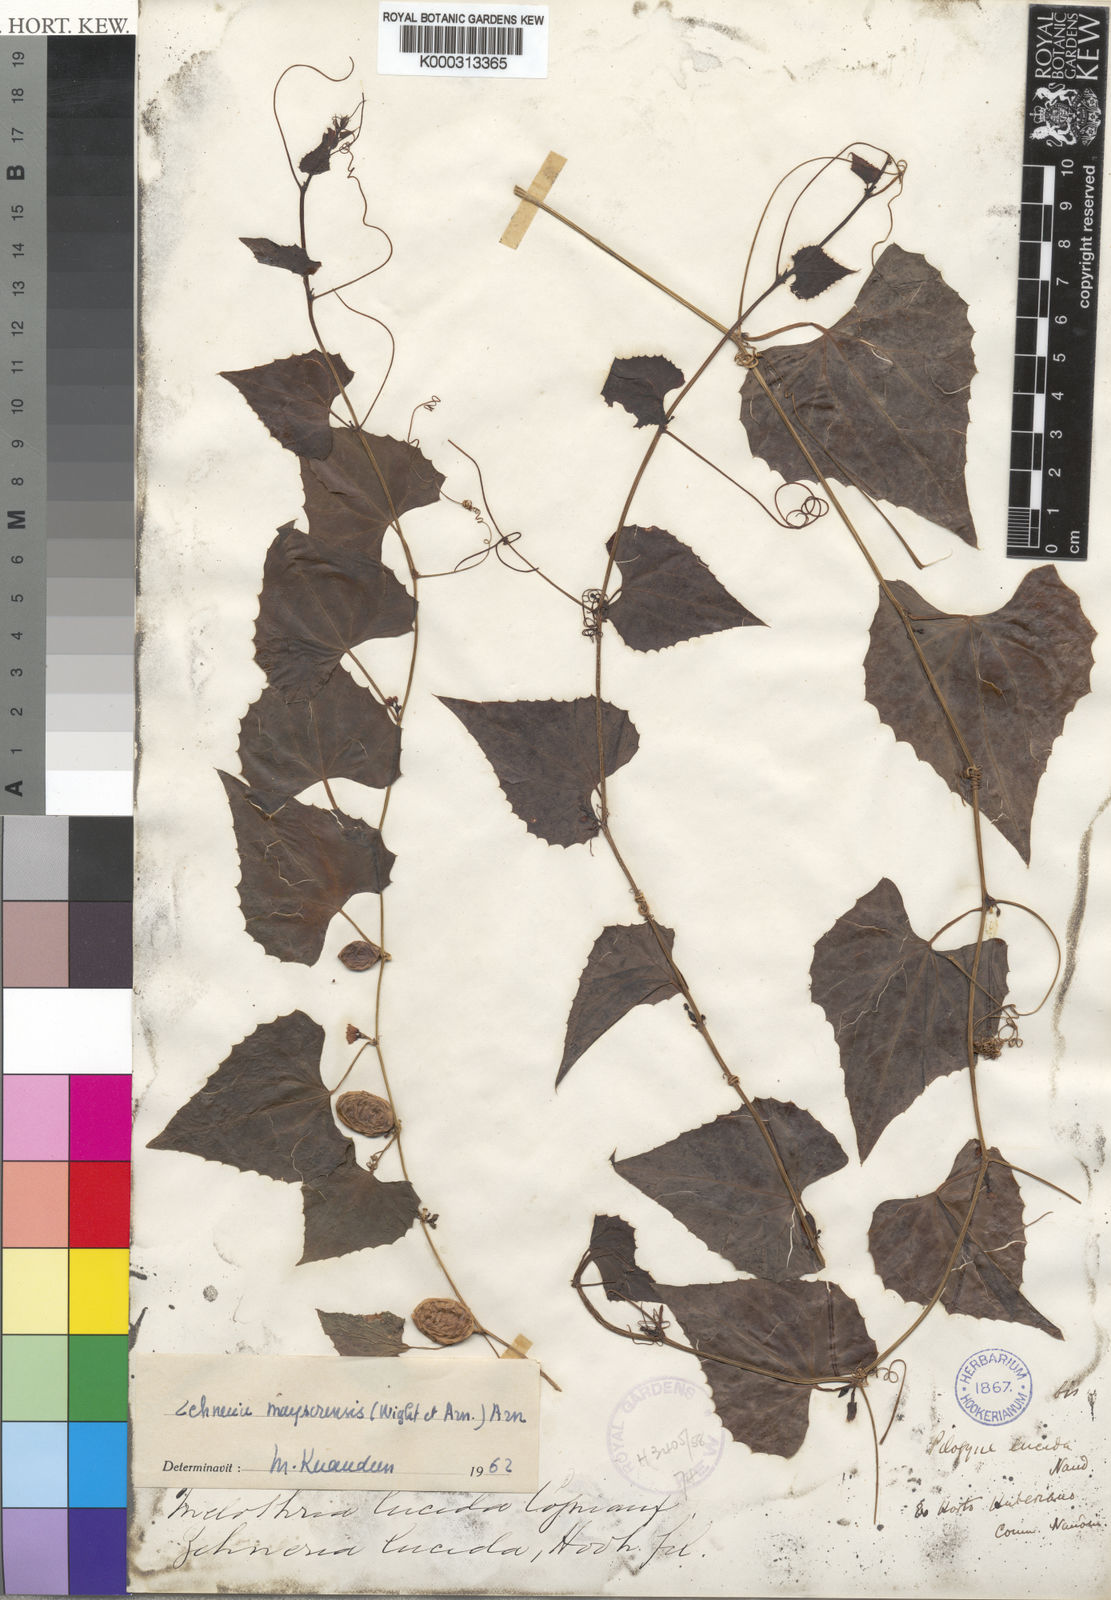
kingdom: Plantae
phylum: Tracheophyta
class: Magnoliopsida
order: Cucurbitales
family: Cucurbitaceae
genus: Zehneria
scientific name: Zehneria maysorensis
